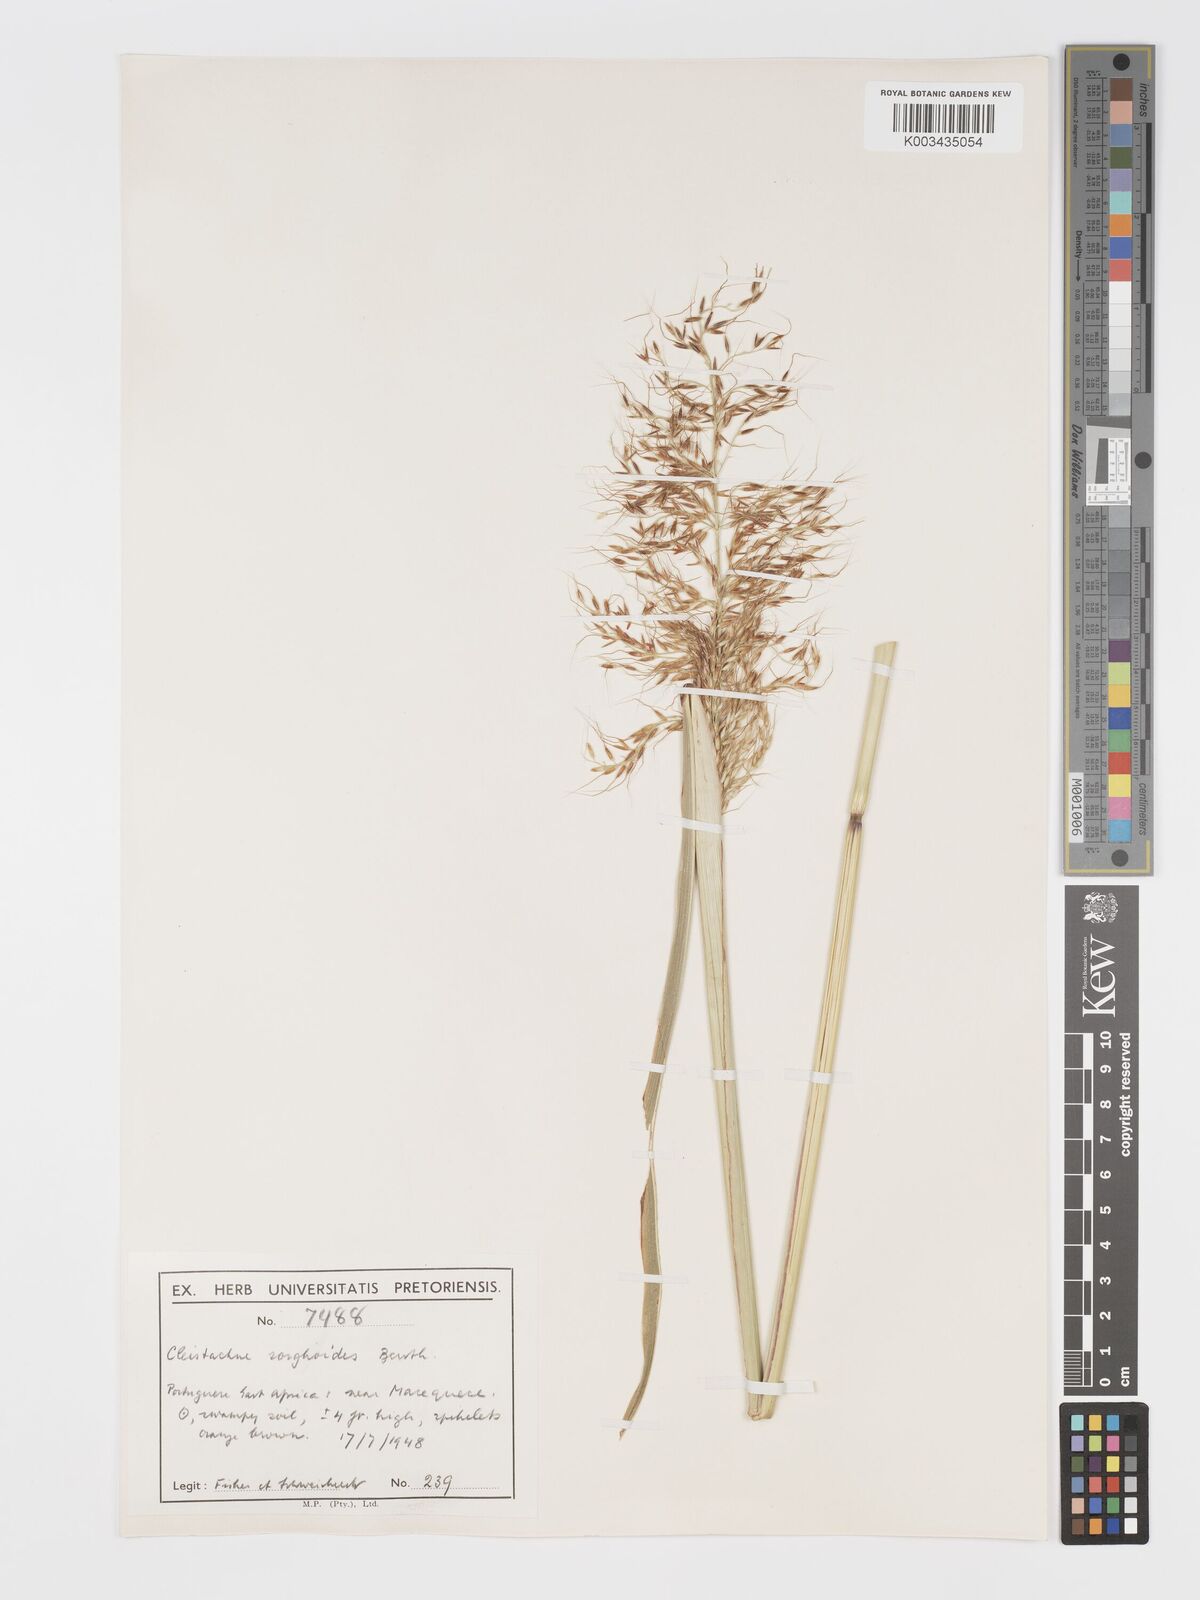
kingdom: Plantae
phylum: Tracheophyta
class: Liliopsida
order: Poales
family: Poaceae
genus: Cleistachne
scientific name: Cleistachne sorghoides
